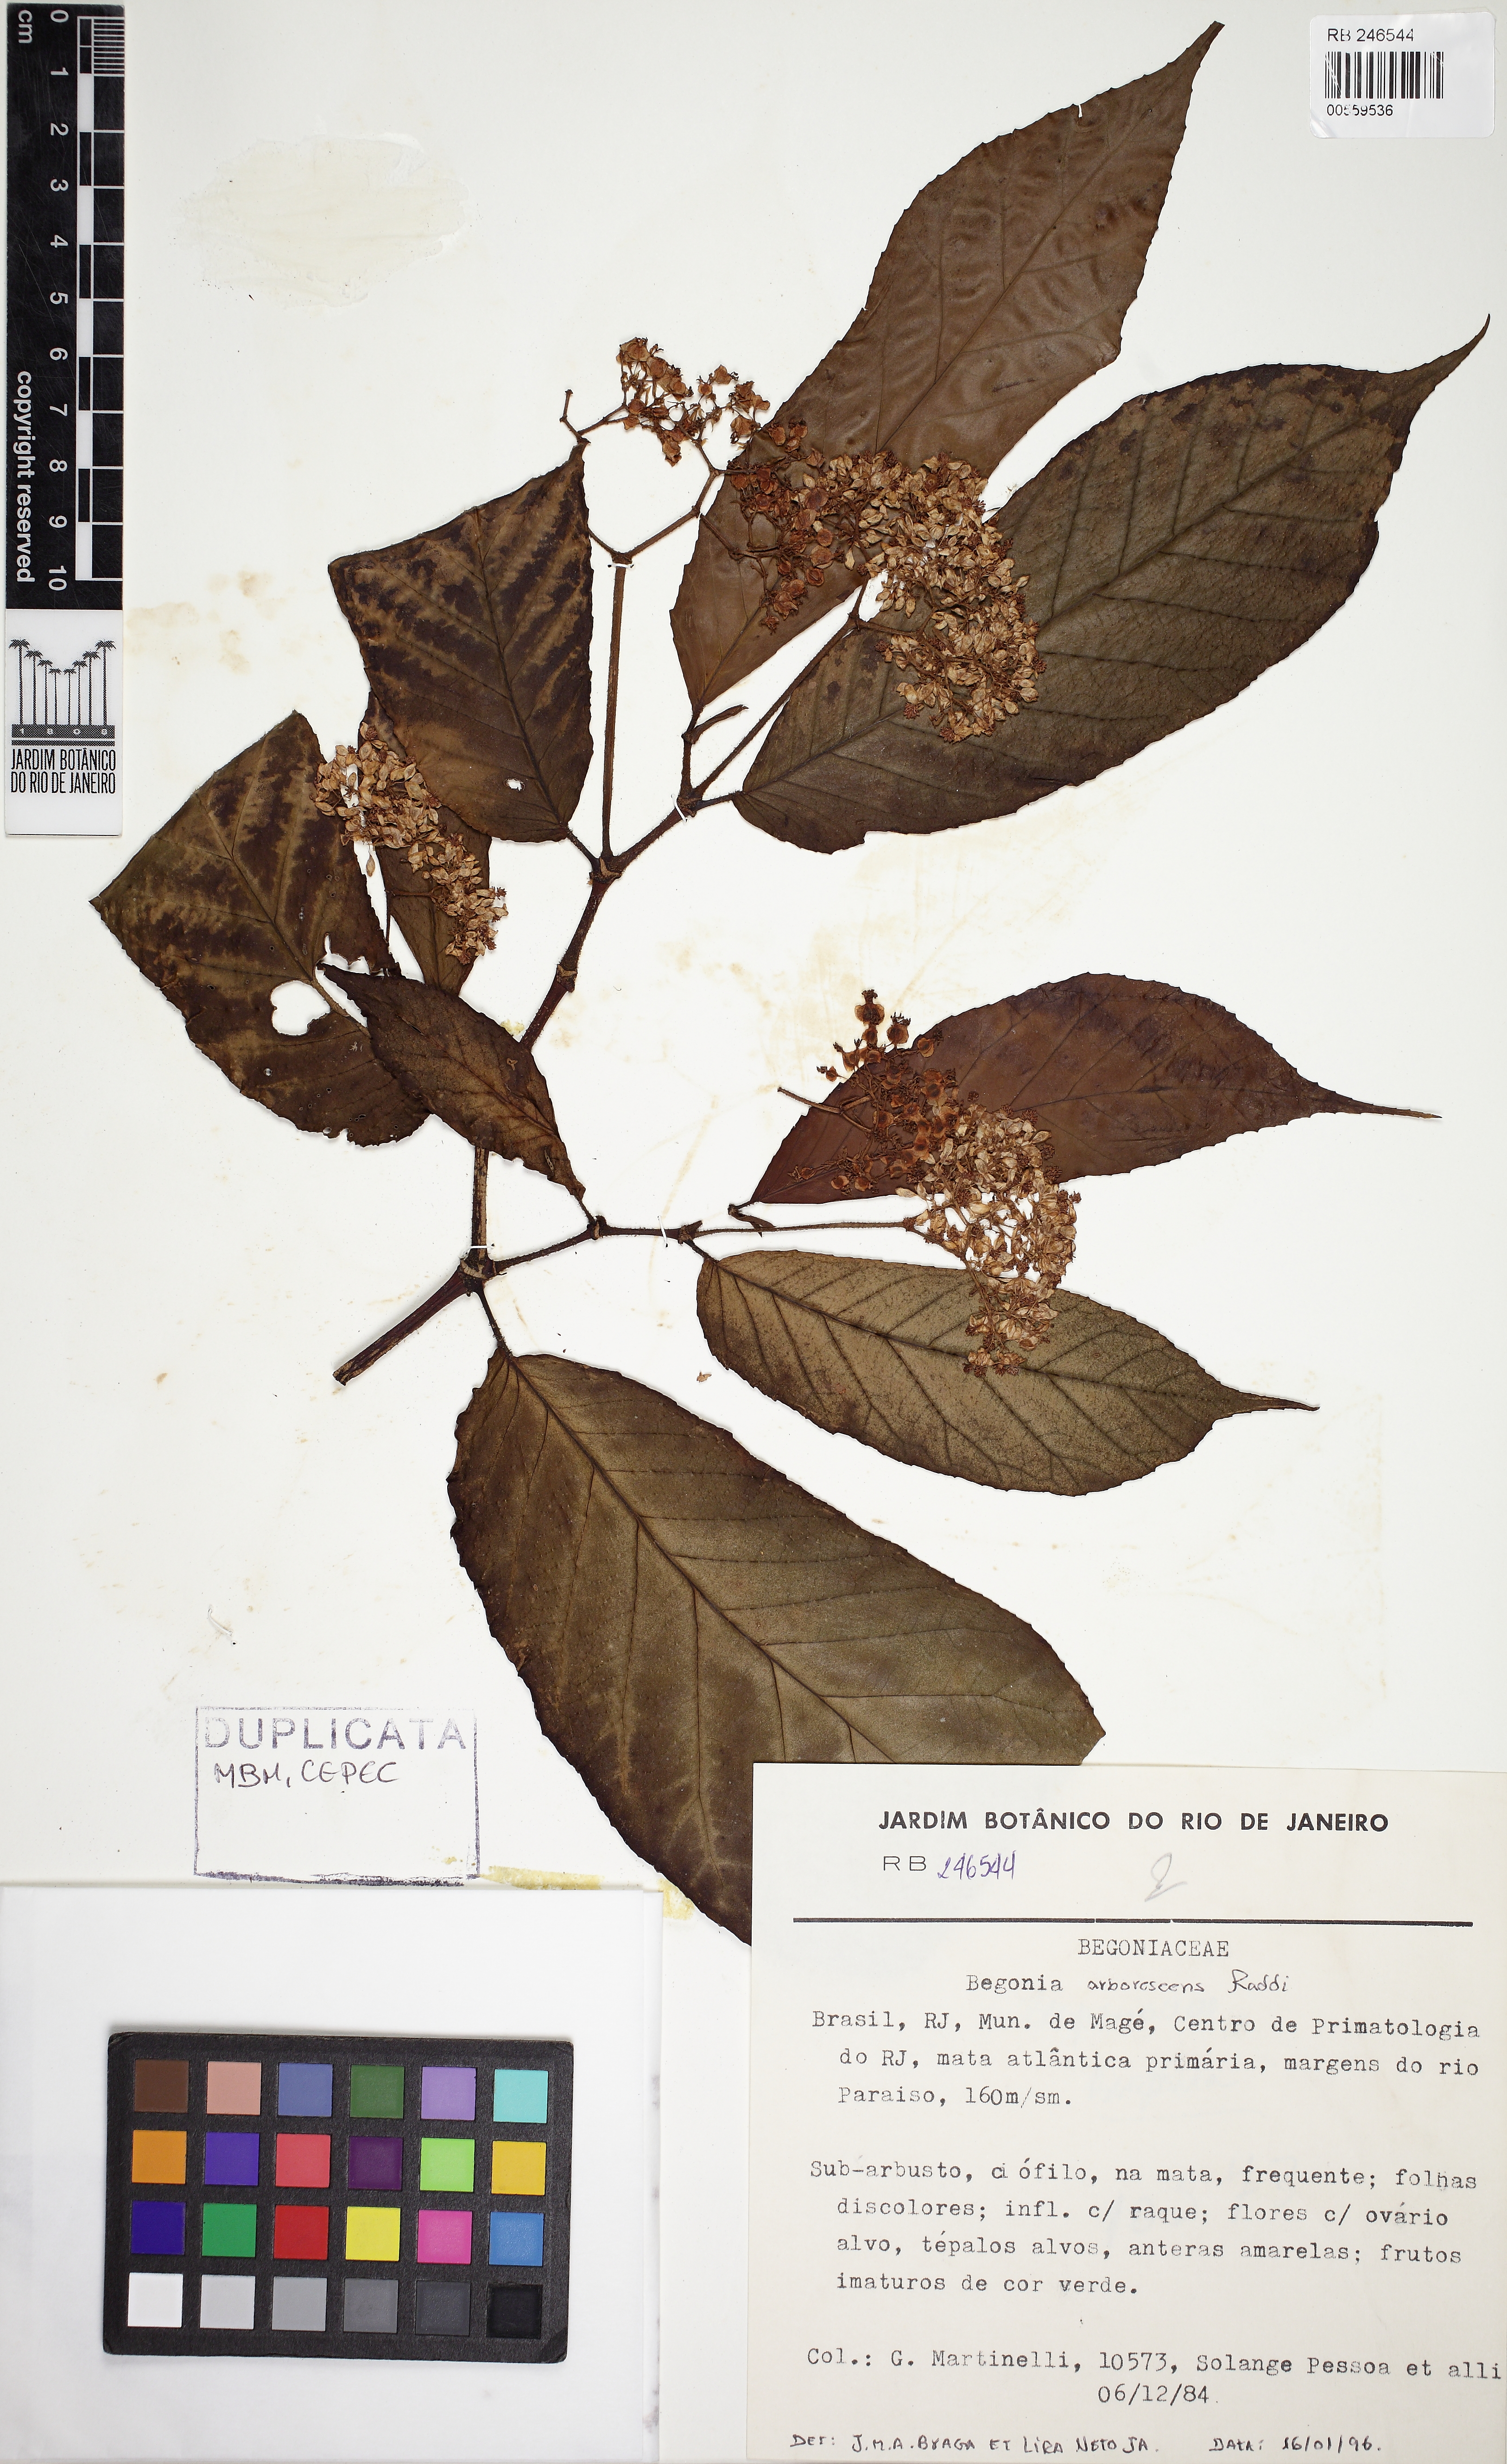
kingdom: Plantae
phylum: Tracheophyta
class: Magnoliopsida
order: Cucurbitales
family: Begoniaceae
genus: Begonia
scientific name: Begonia arborescens
